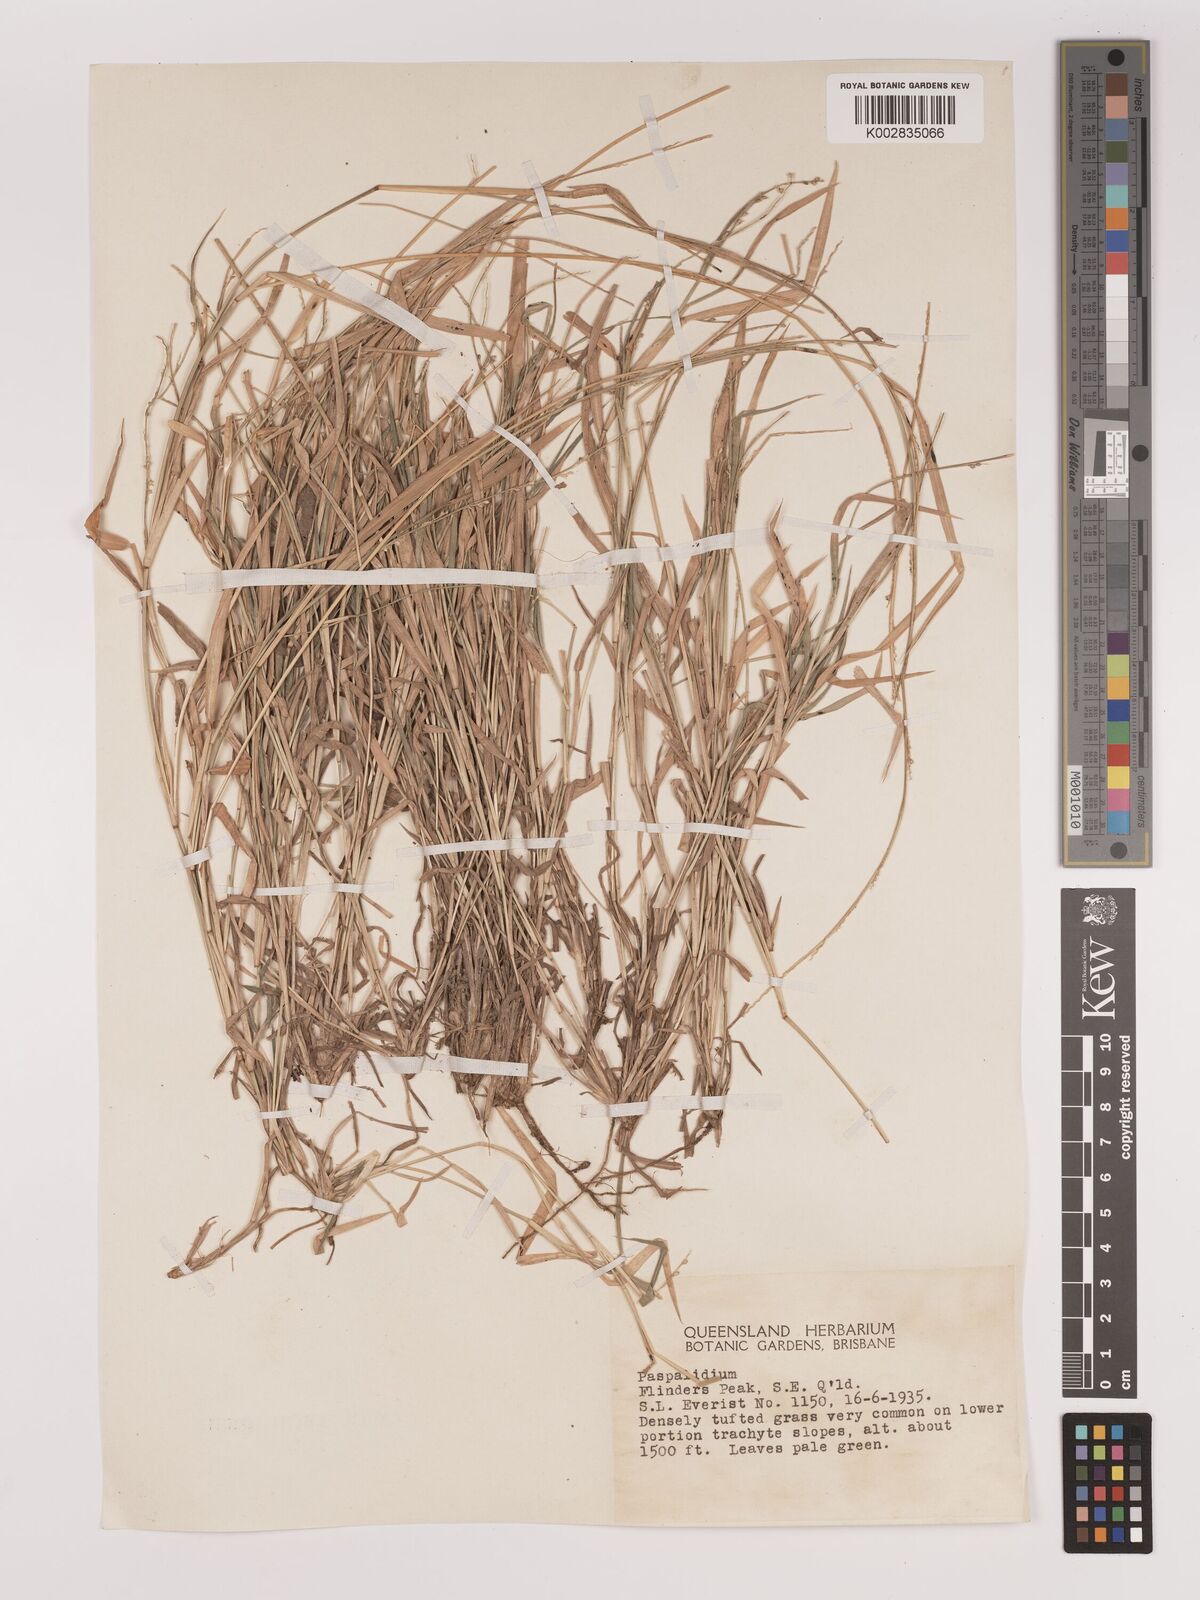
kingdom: Plantae
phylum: Tracheophyta
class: Liliopsida
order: Poales
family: Poaceae
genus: Setaria
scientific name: Setaria
